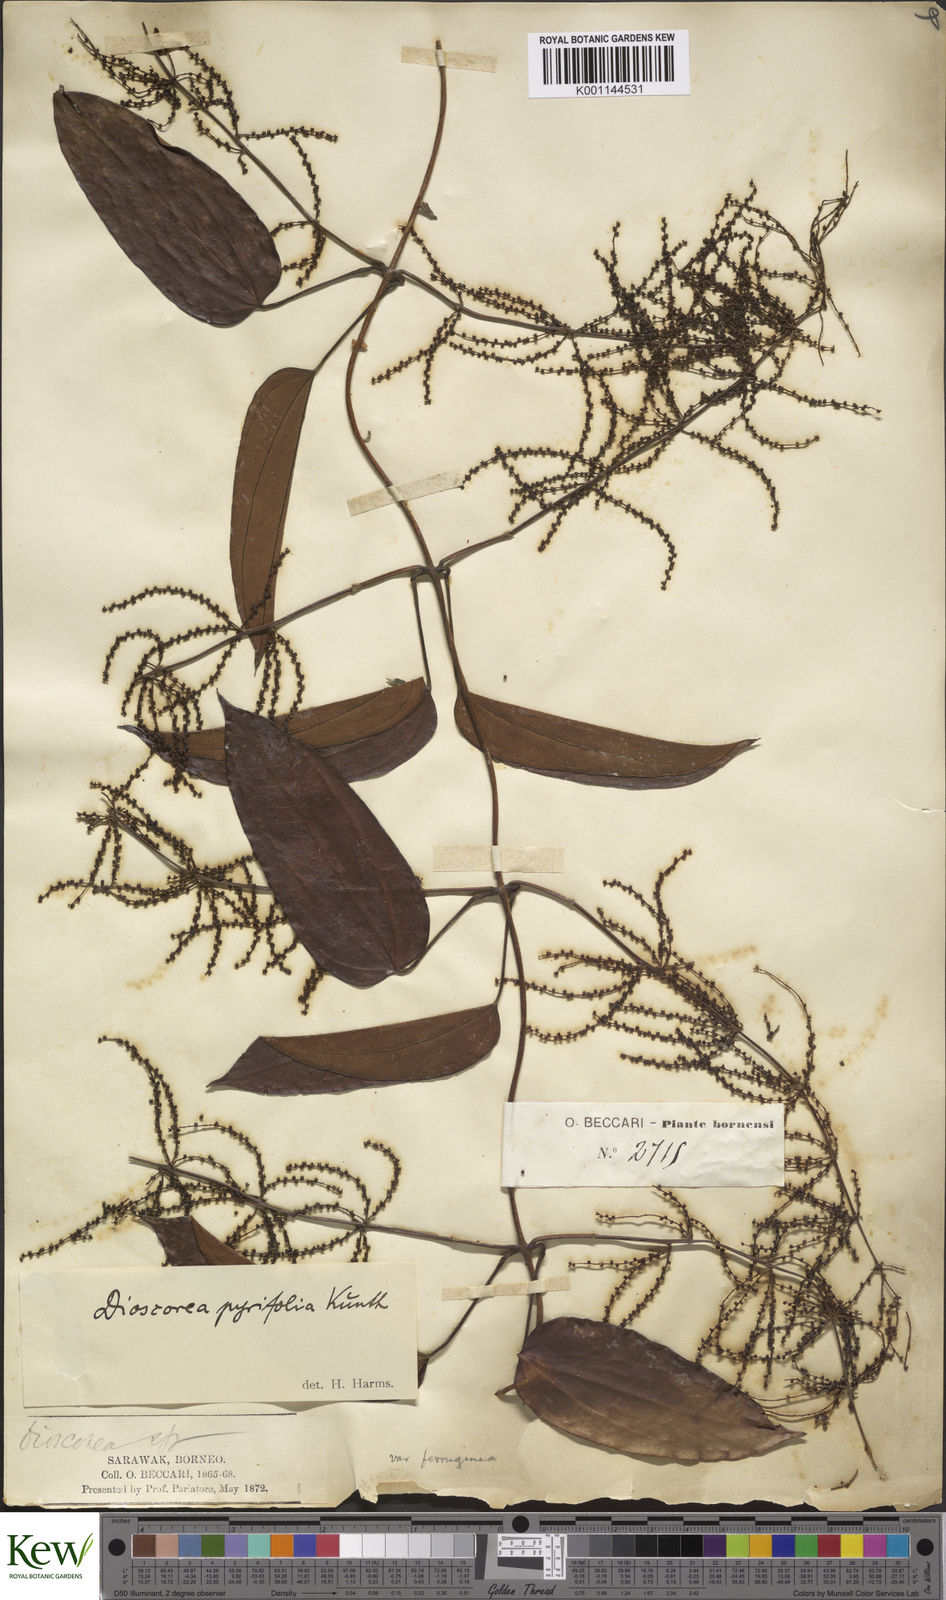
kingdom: Plantae
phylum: Tracheophyta
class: Liliopsida
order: Dioscoreales
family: Dioscoreaceae
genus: Dioscorea
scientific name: Dioscorea pyrifolia
